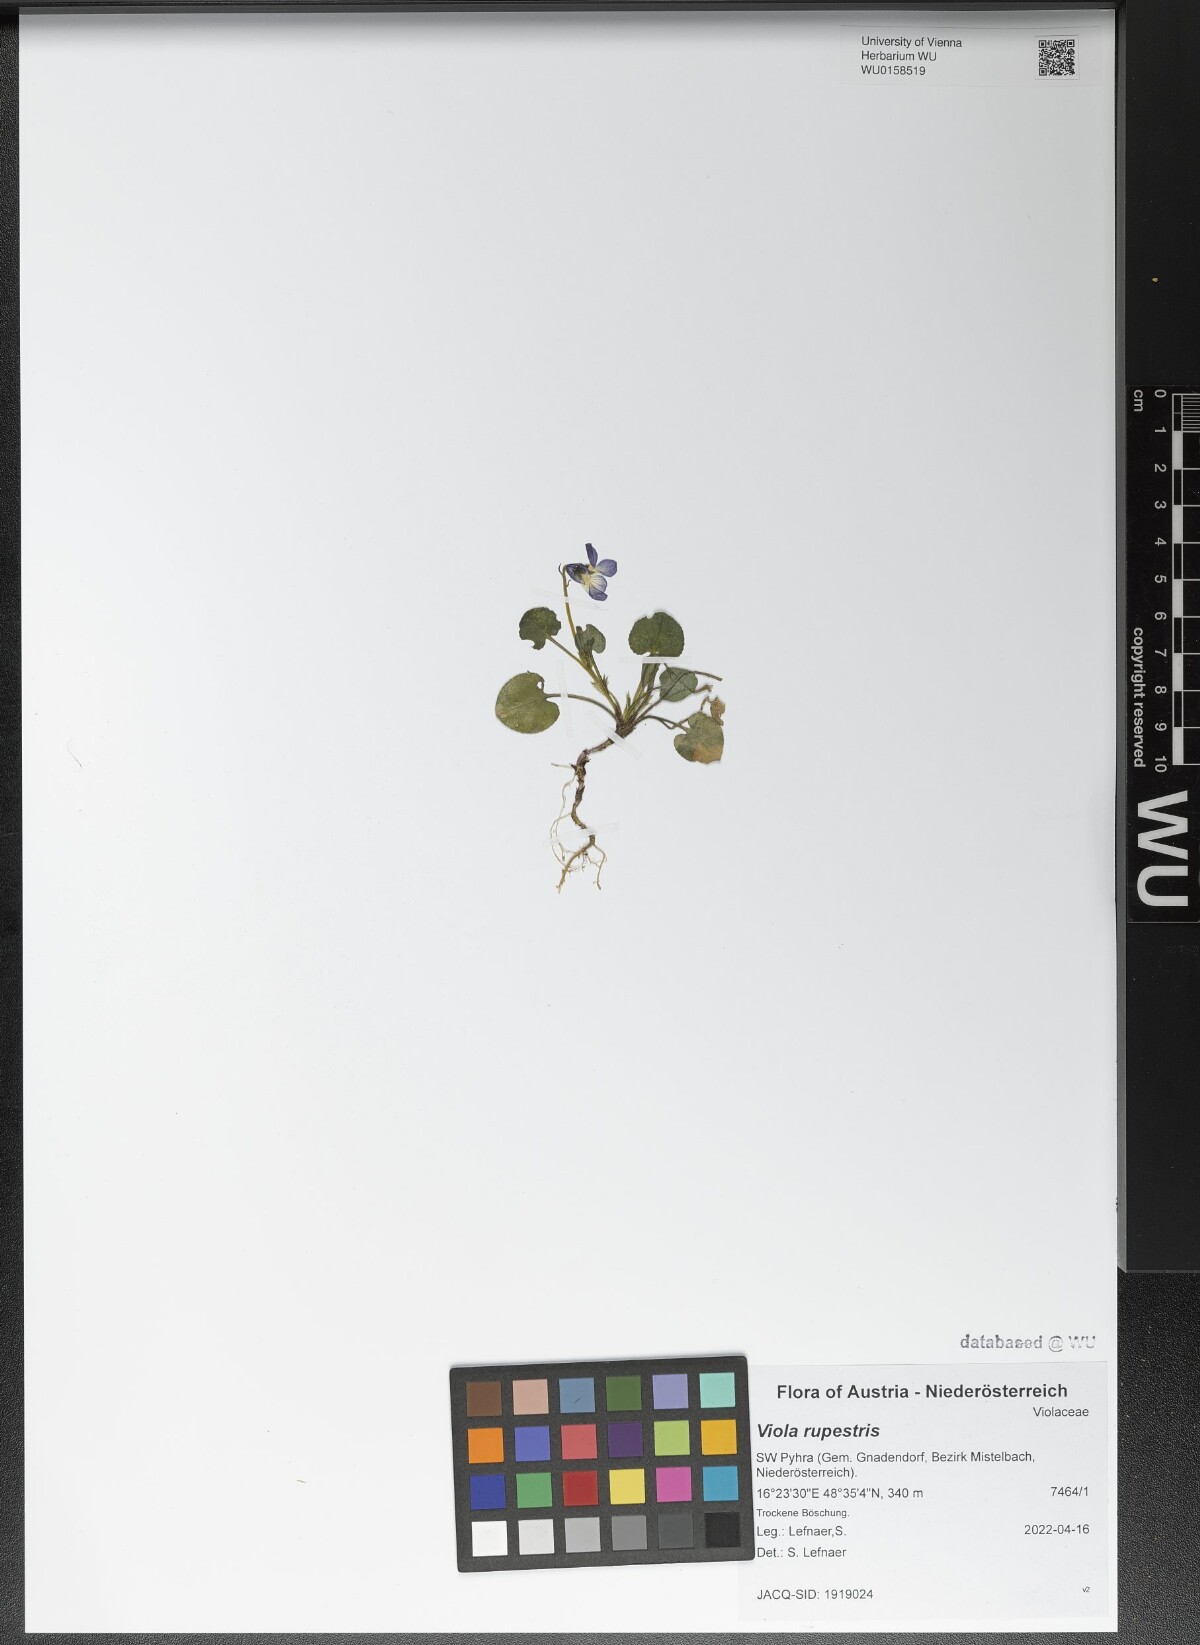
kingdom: Plantae
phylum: Tracheophyta
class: Magnoliopsida
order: Malpighiales
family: Violaceae
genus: Viola
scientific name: Viola rupestris
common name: Teesdale violet
